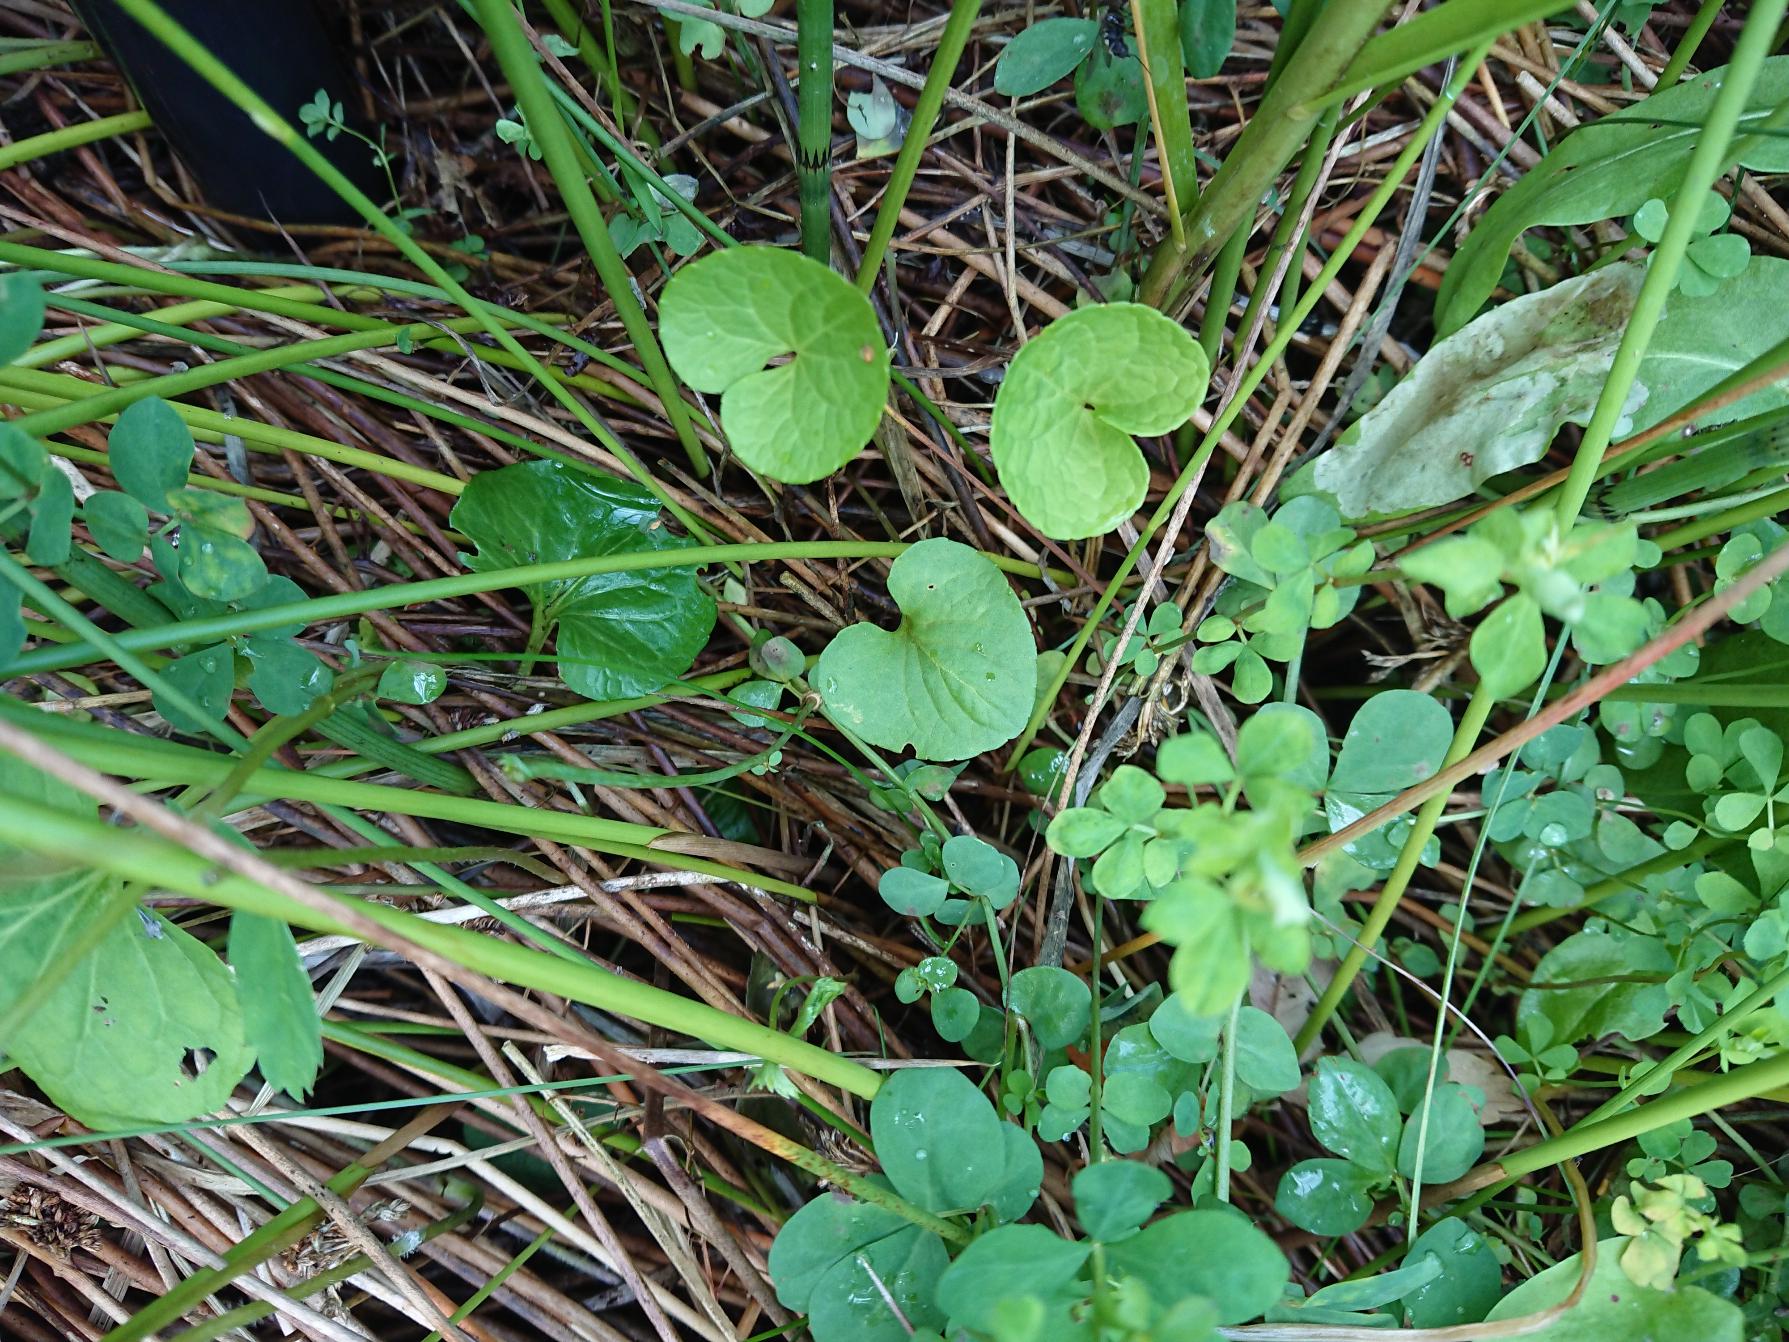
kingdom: Plantae
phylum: Tracheophyta
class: Magnoliopsida
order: Malpighiales
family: Violaceae
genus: Viola
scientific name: Viola palustris
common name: Eng-viol
